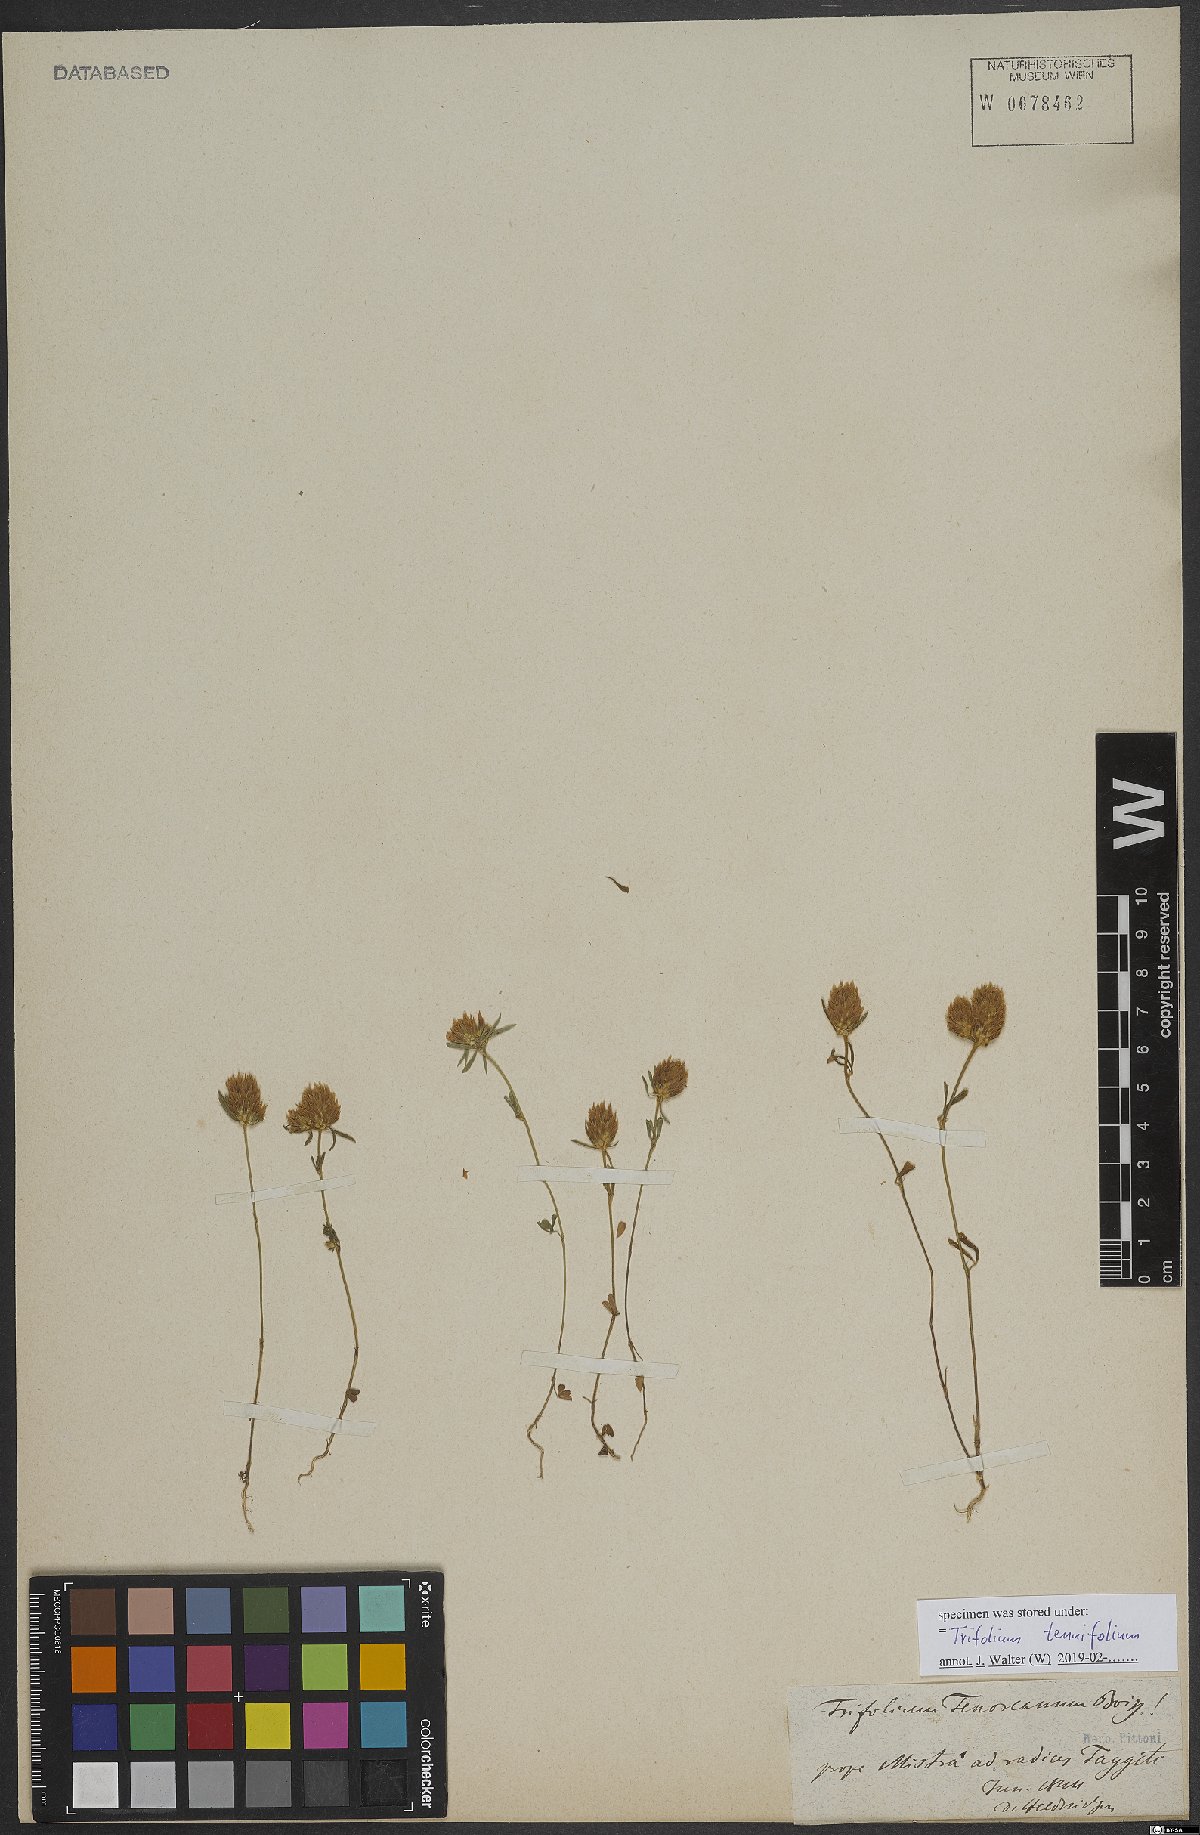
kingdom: Plantae
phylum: Tracheophyta
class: Magnoliopsida
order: Fabales
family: Fabaceae
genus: Trifolium
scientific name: Trifolium tenuifolium
